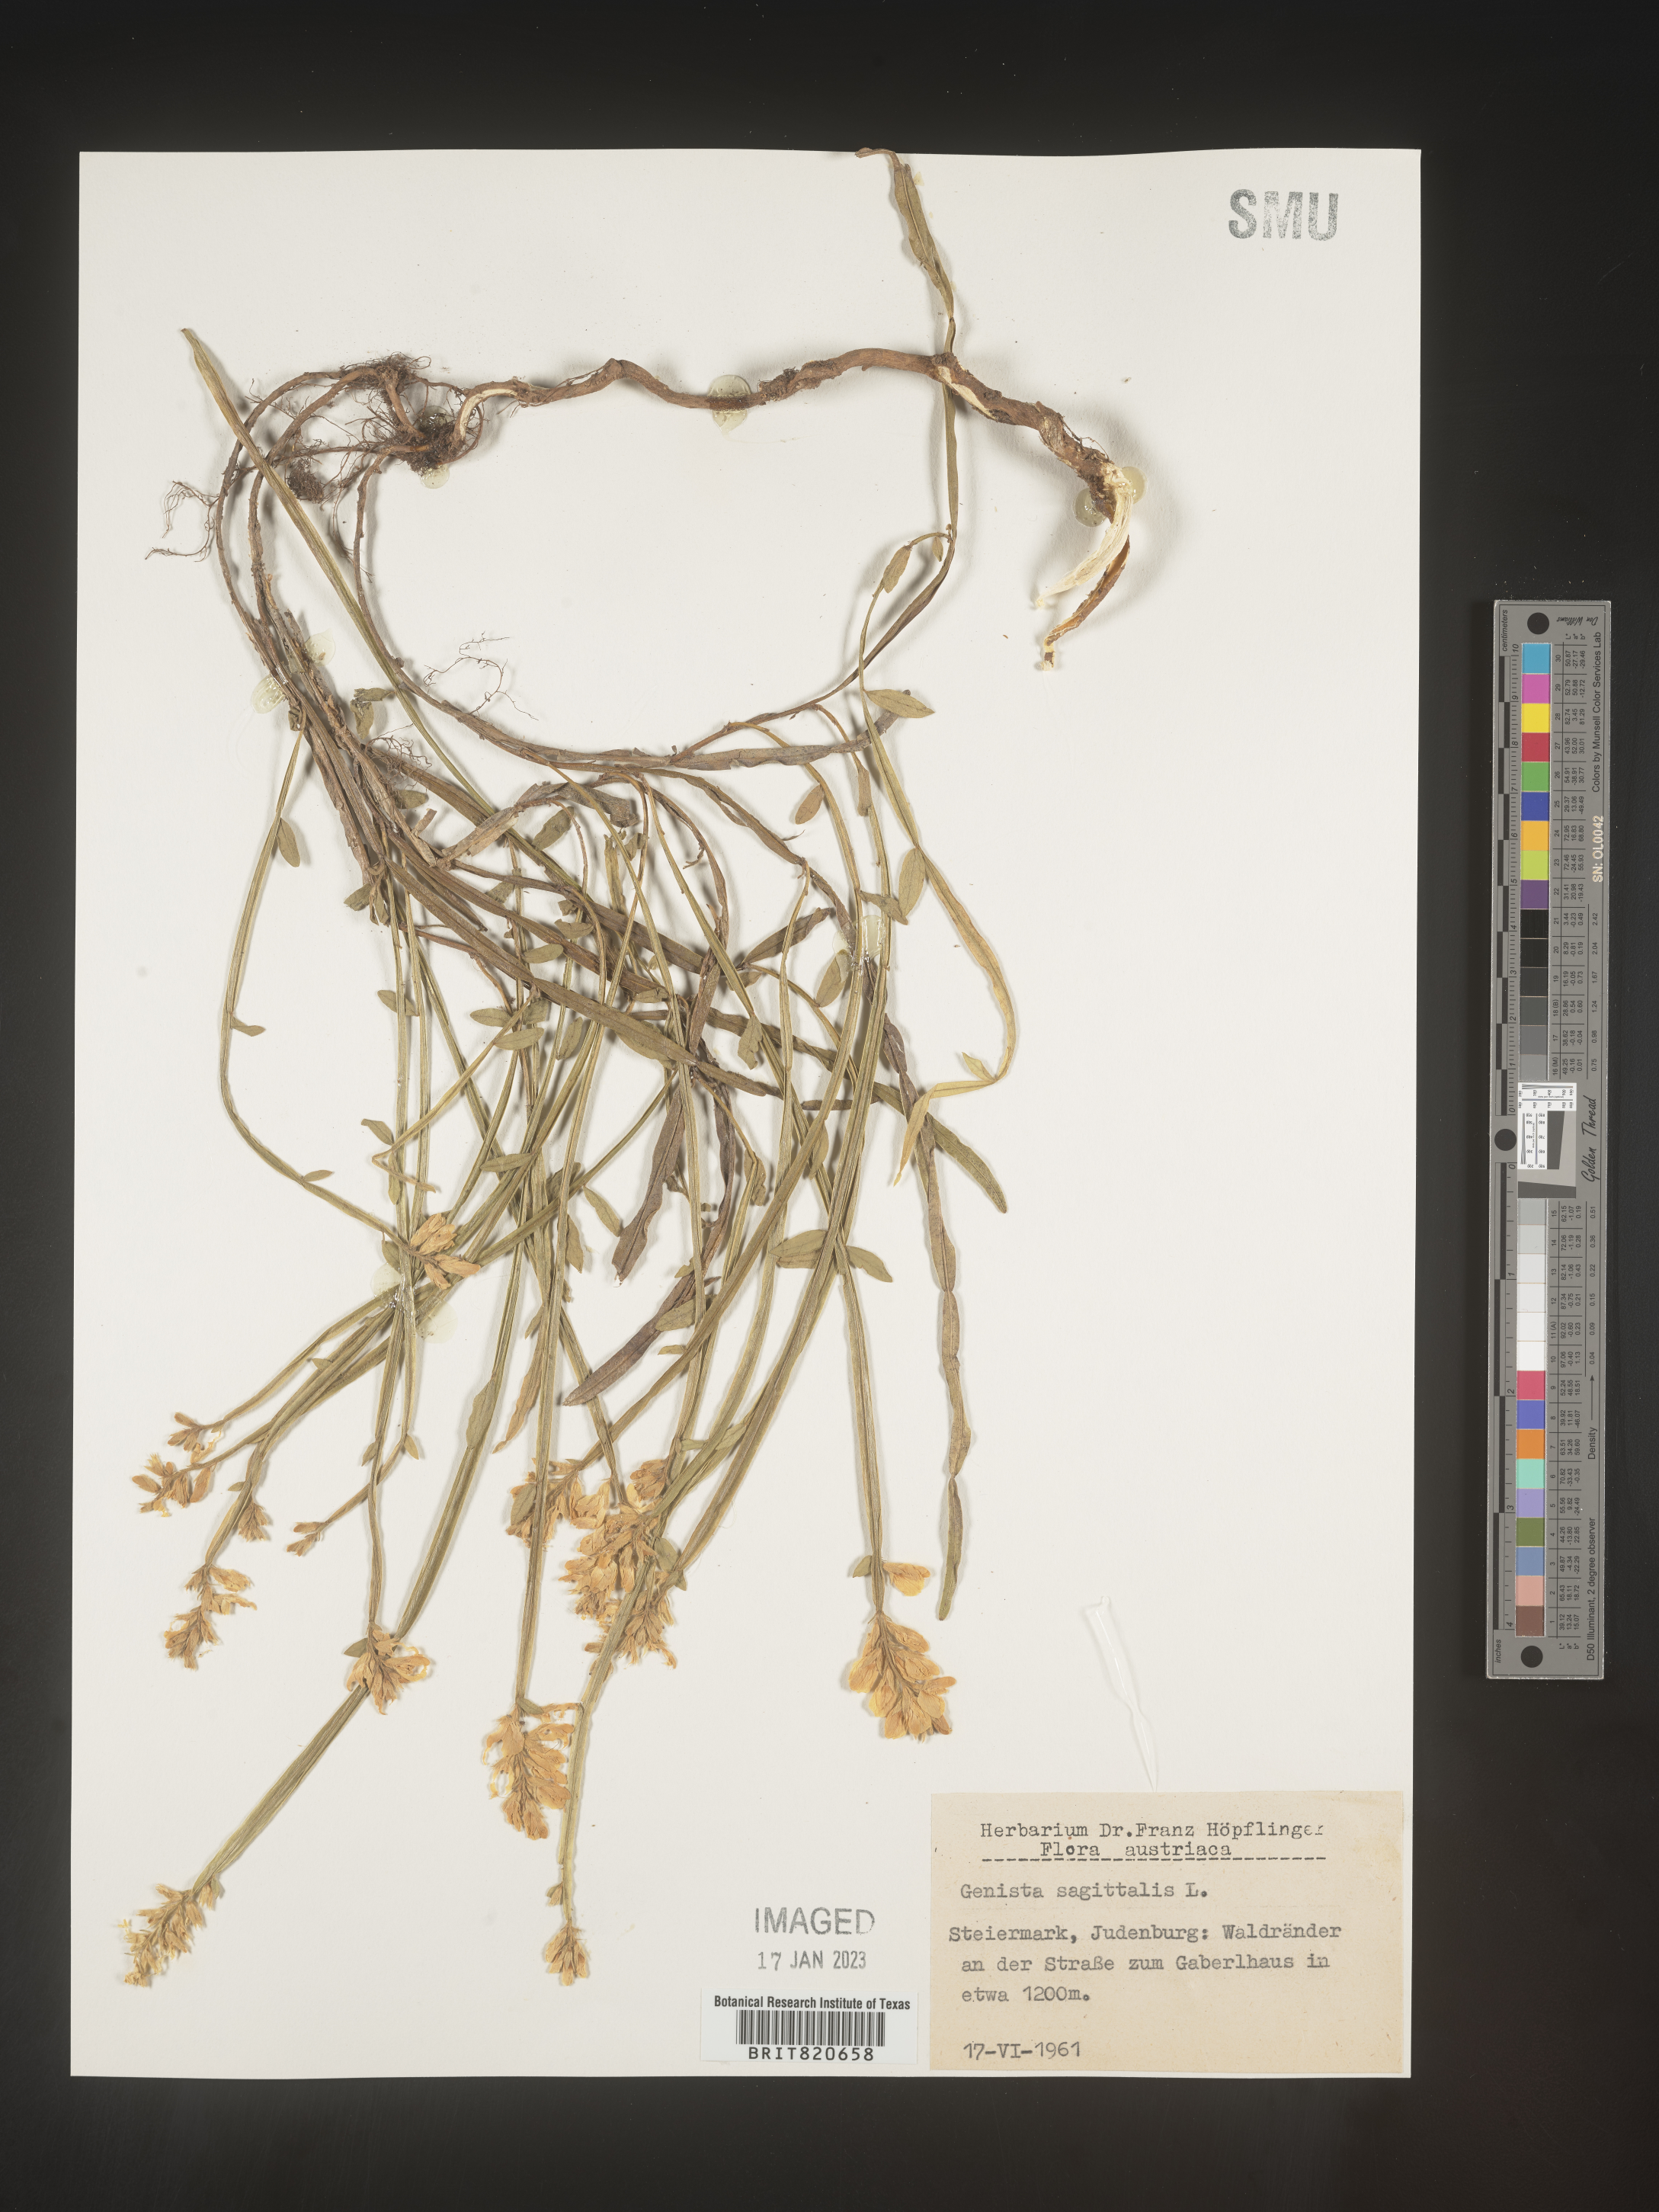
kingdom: Plantae
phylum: Tracheophyta
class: Magnoliopsida
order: Fabales
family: Fabaceae
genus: Genista
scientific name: Genista
